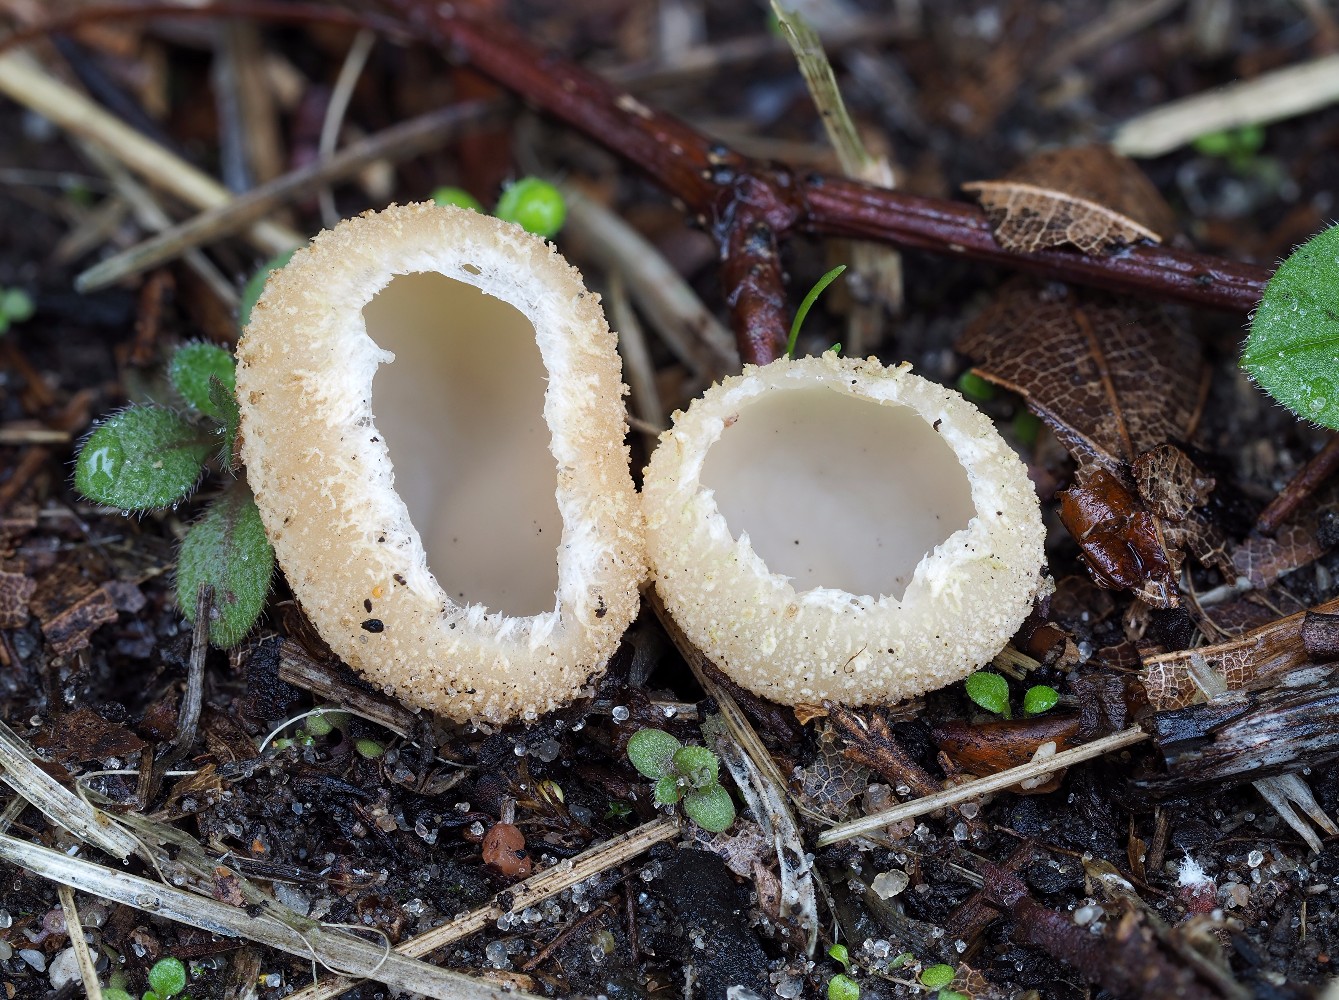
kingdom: Fungi
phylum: Ascomycota
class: Pezizomycetes
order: Pezizales
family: Pyronemataceae
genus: Tarzetta
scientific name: Tarzetta cupularis
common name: gulbrun pokalbæger
